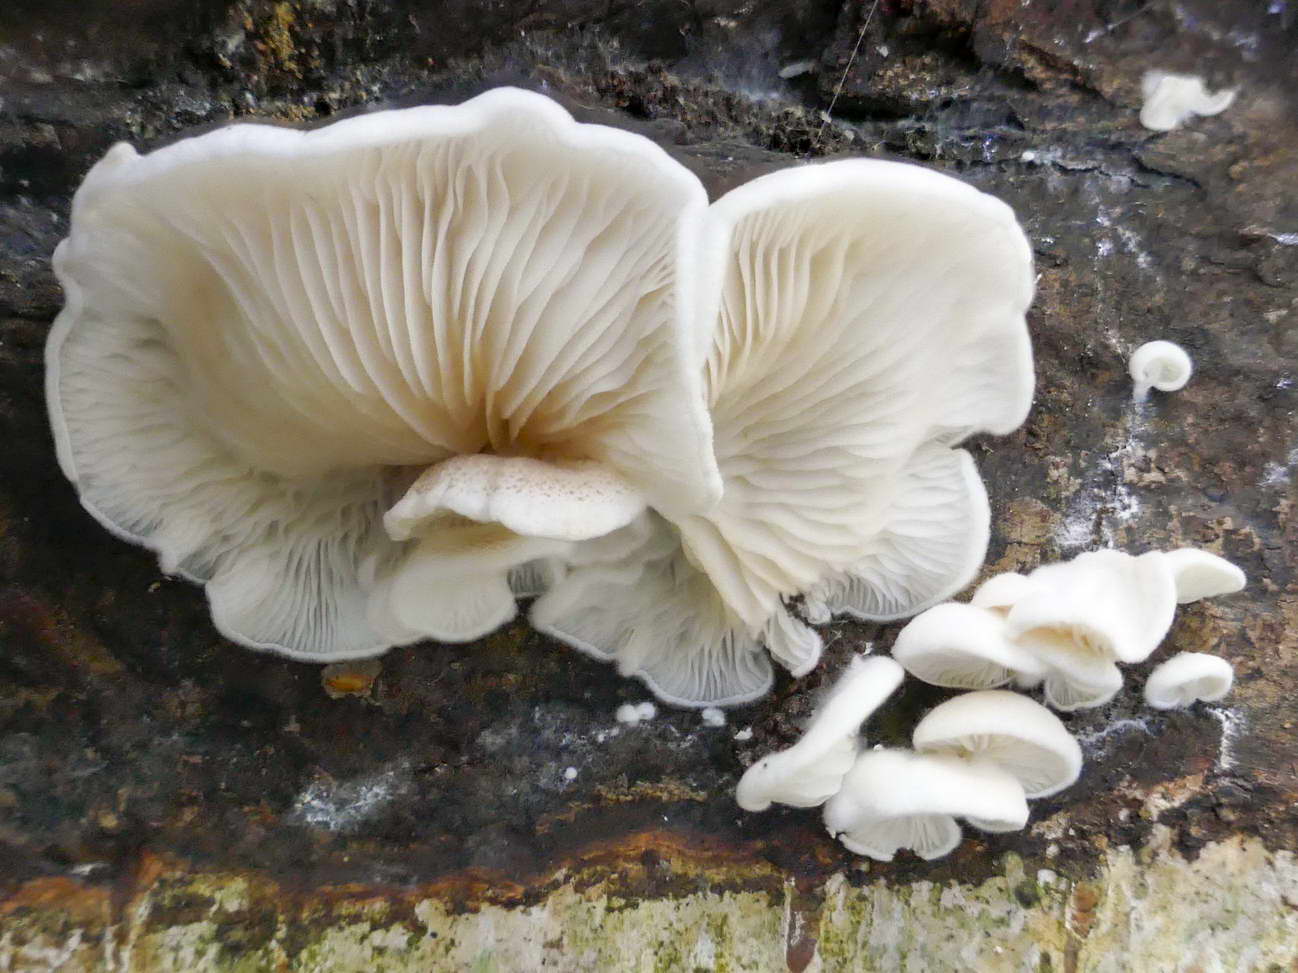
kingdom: Fungi
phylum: Basidiomycota
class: Agaricomycetes
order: Agaricales
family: Entolomataceae
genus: Clitopilus
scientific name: Clitopilus hobsonii
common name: Miller's oysterling
